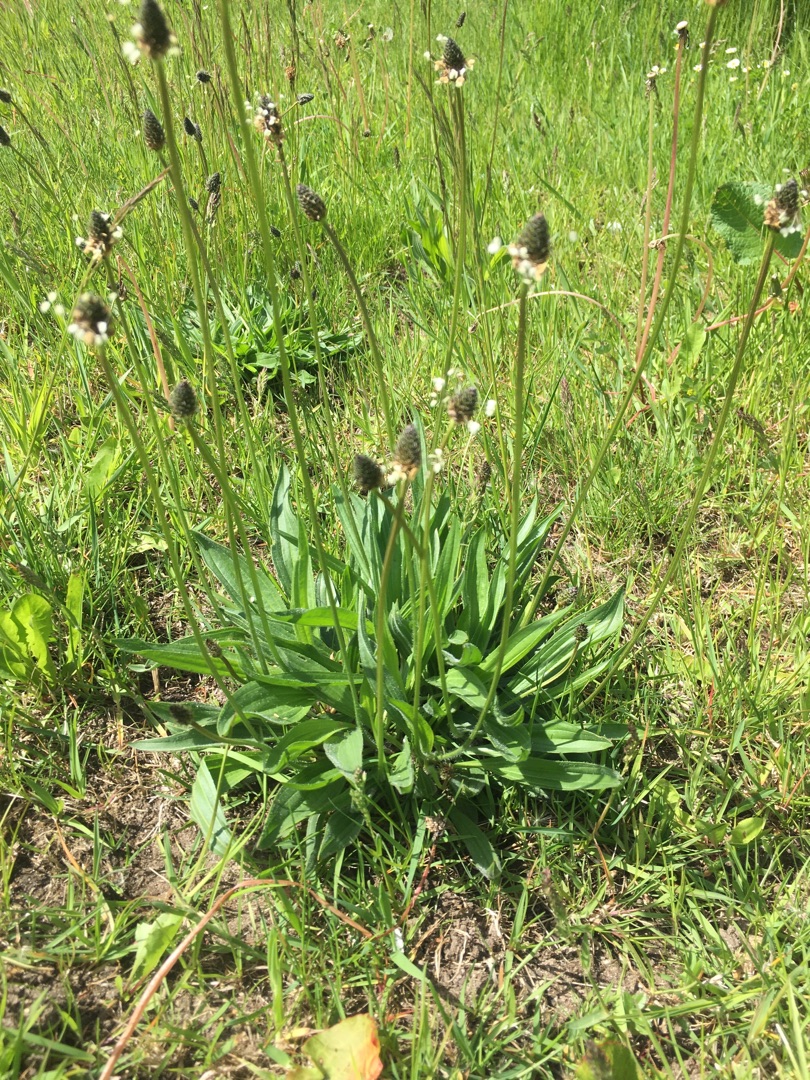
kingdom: Plantae
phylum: Tracheophyta
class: Magnoliopsida
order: Lamiales
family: Plantaginaceae
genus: Plantago
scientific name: Plantago lanceolata
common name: Lancet-vejbred
